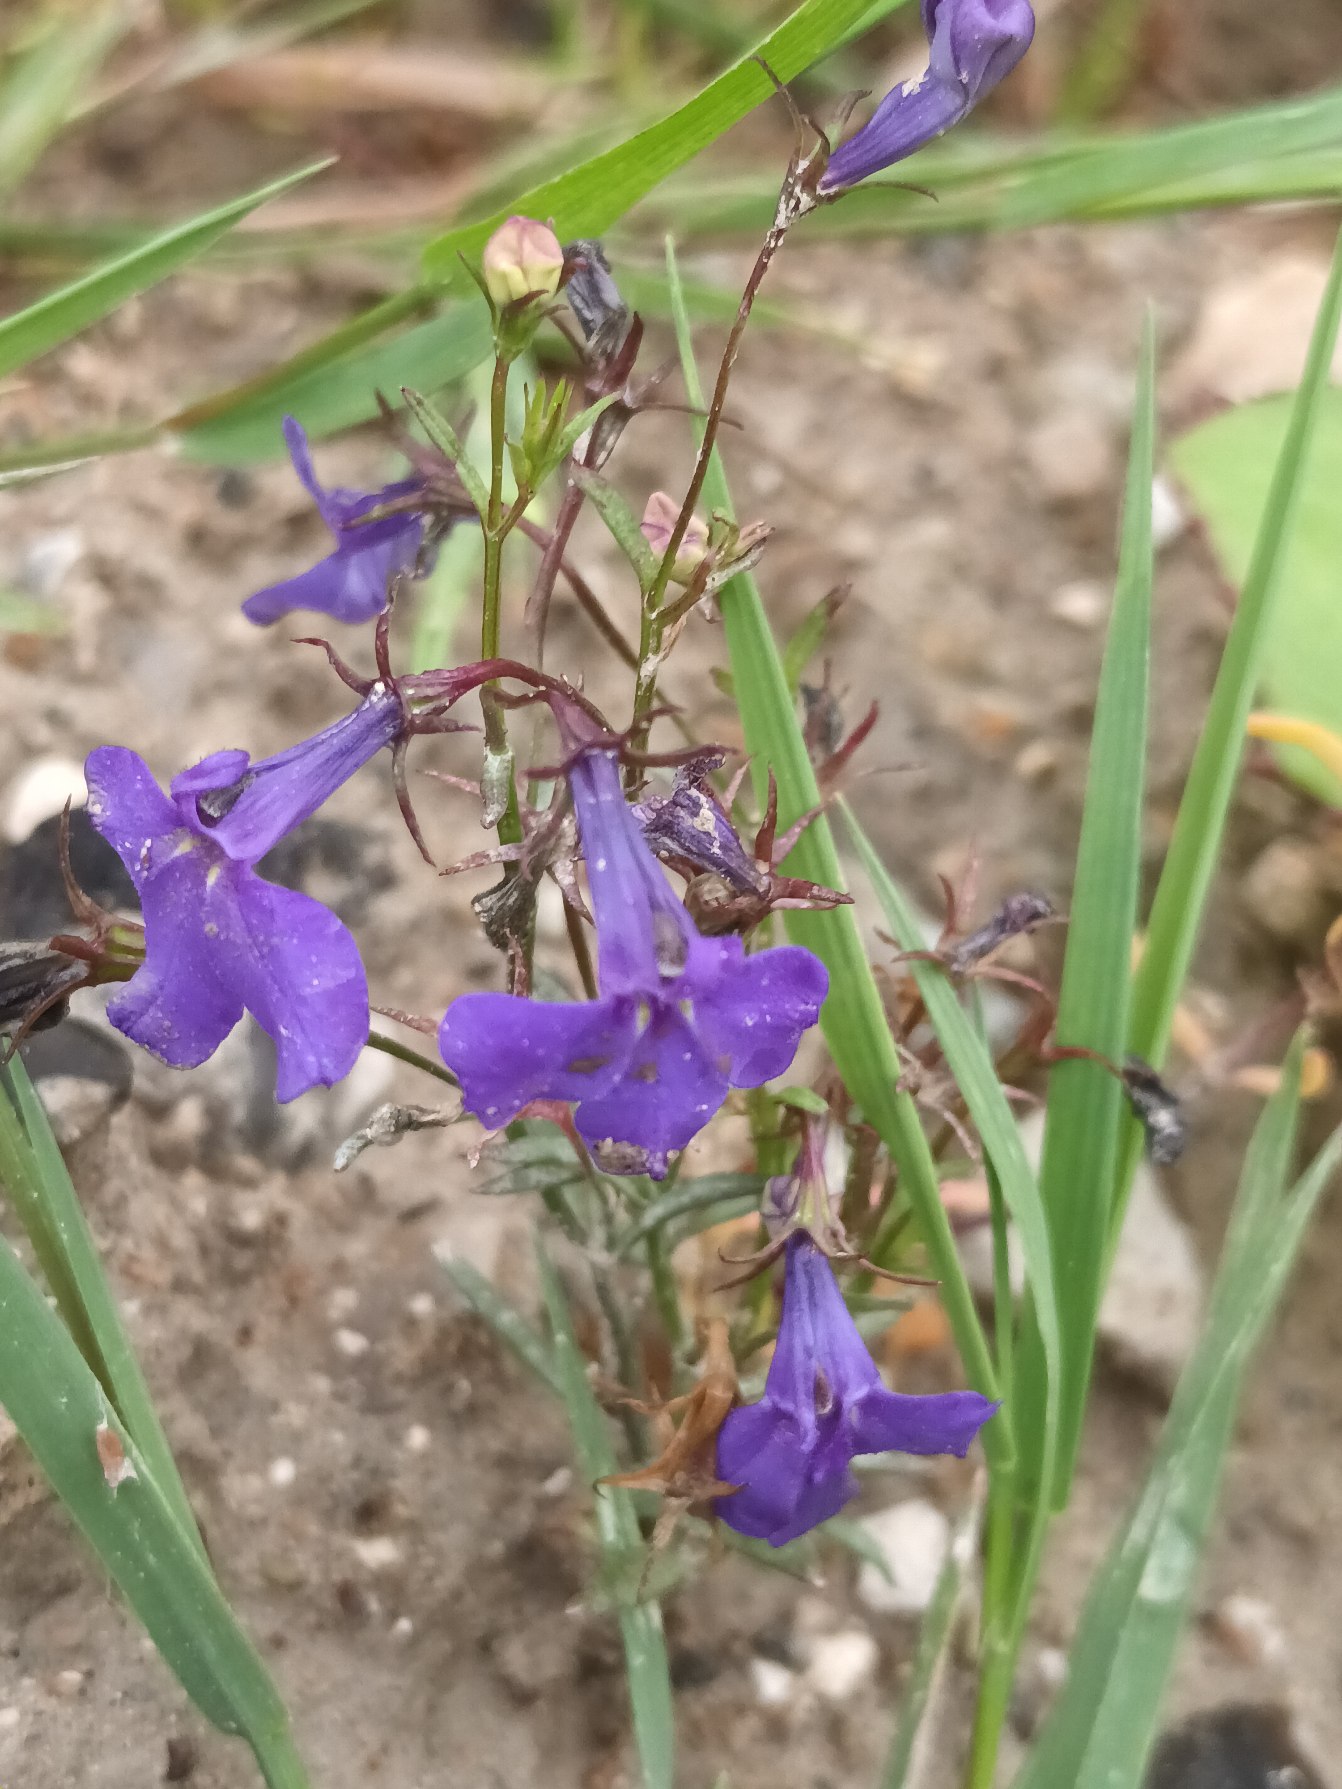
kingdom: Plantae
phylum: Tracheophyta
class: Magnoliopsida
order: Asterales
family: Campanulaceae
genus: Lobelia
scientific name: Lobelia erinus
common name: Kant-lobelie
